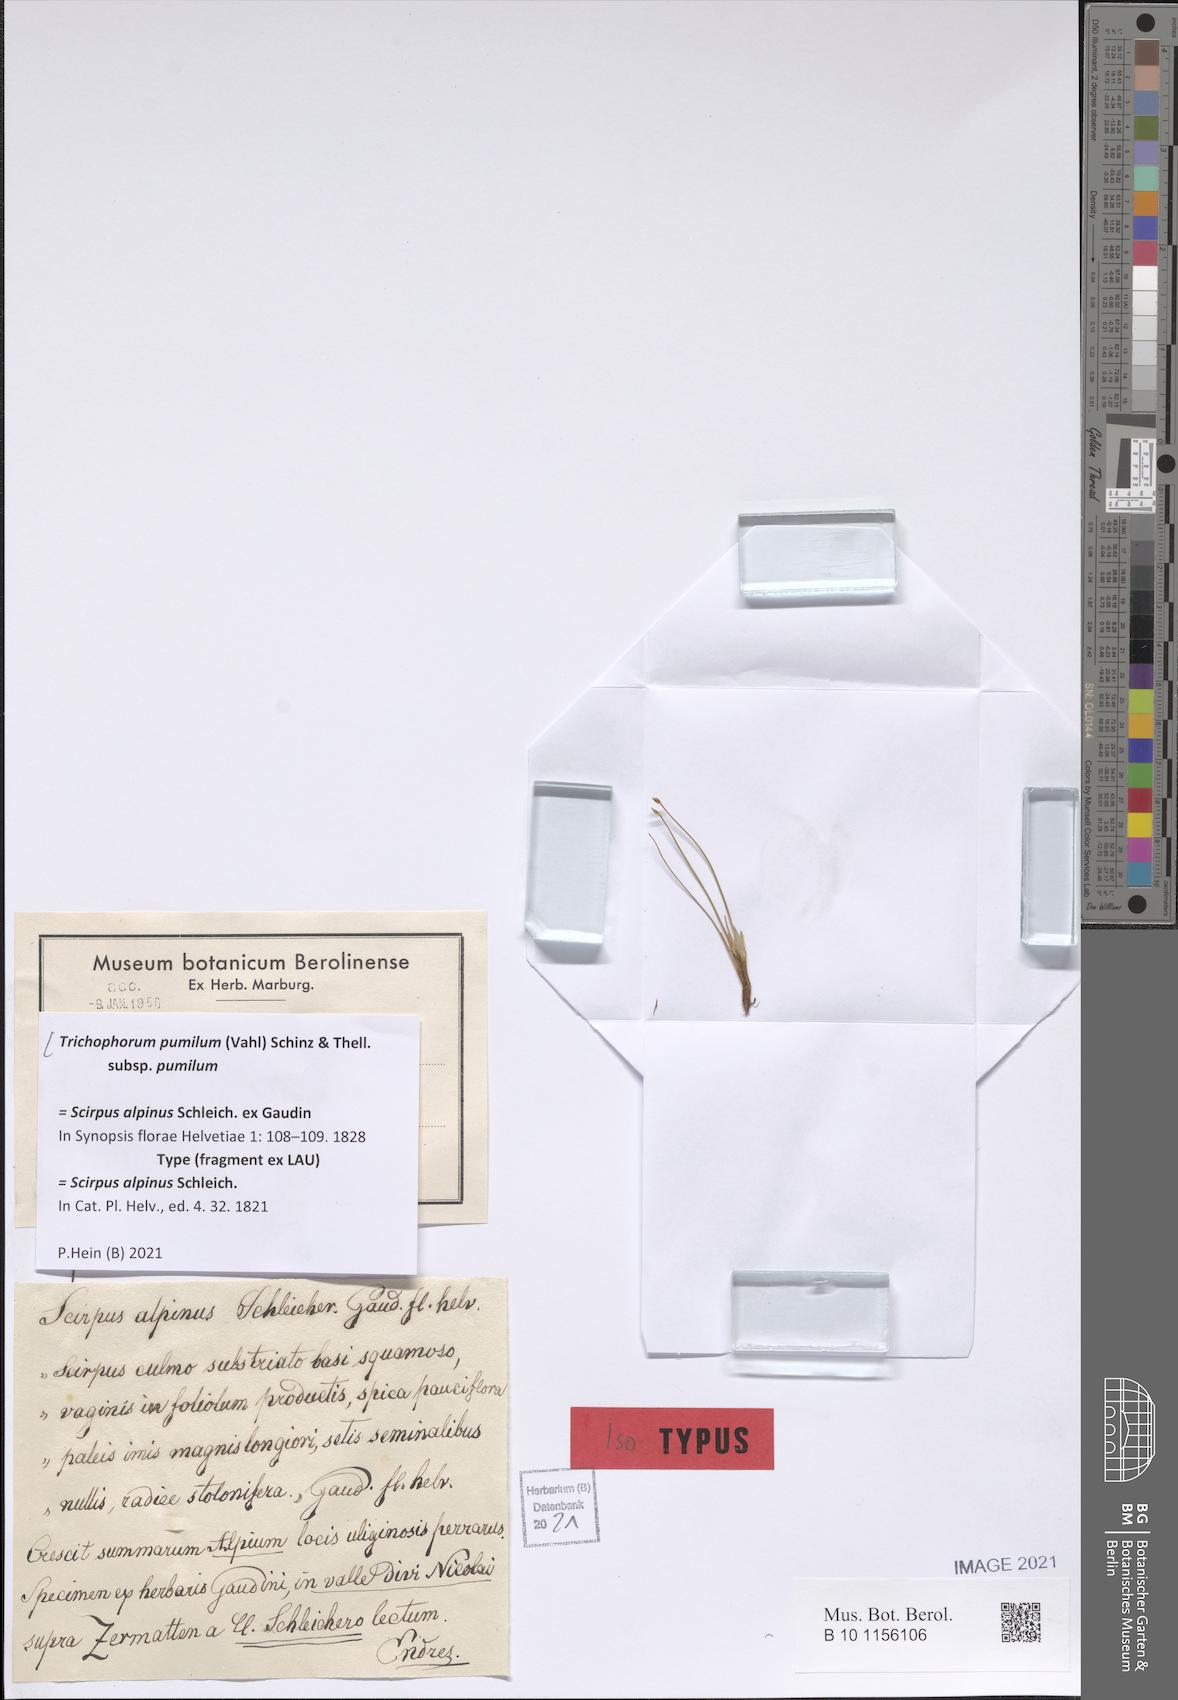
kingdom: Plantae
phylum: Tracheophyta
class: Liliopsida
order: Poales
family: Cyperaceae
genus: Trichophorum
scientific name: Trichophorum pumilum
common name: Rolland's bulrush
